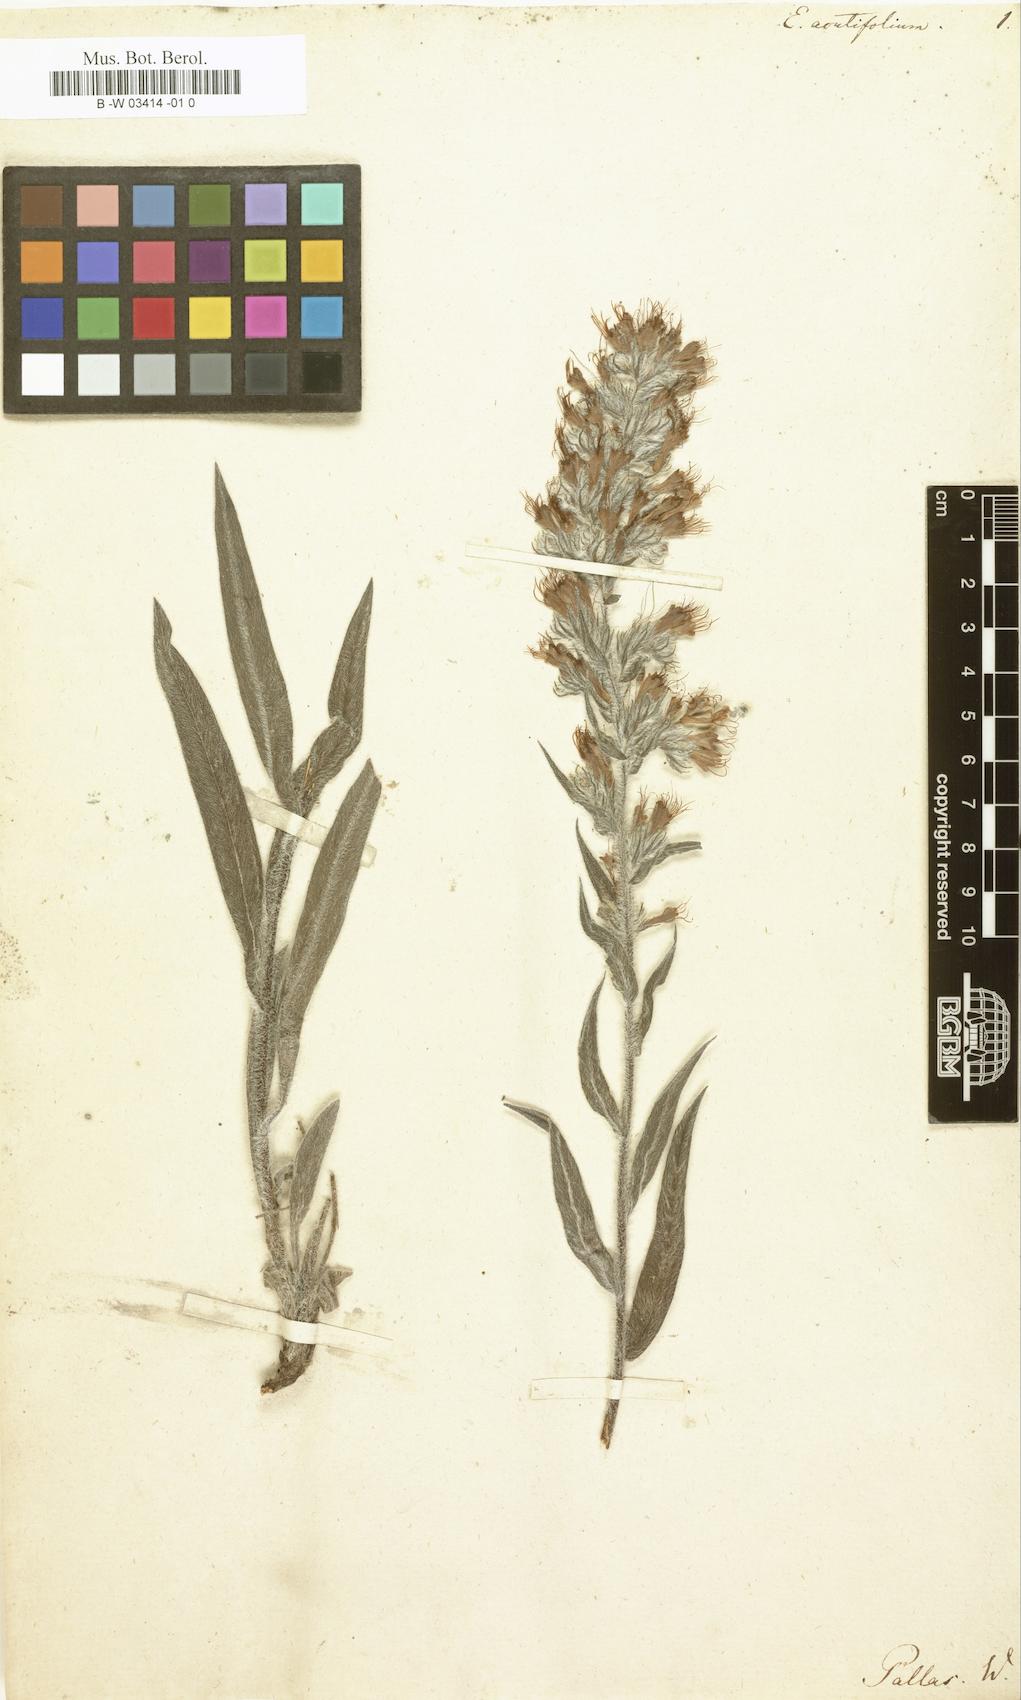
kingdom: Plantae
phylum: Tracheophyta
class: Magnoliopsida
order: Boraginales
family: Boraginaceae
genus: Pontechium
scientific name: Pontechium maculatum
